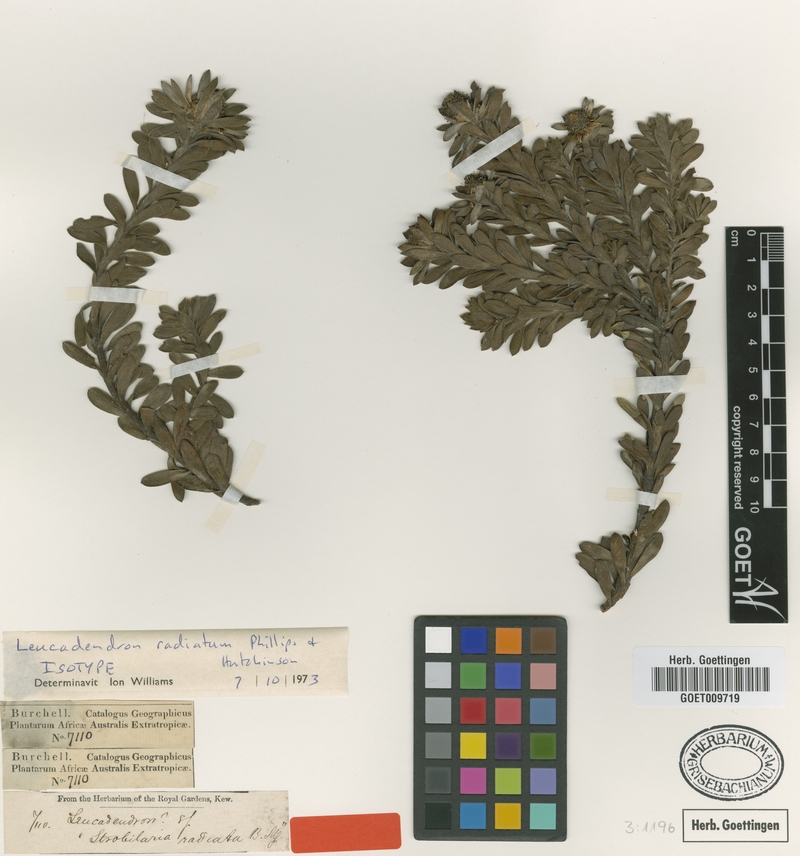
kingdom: Plantae
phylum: Tracheophyta
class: Magnoliopsida
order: Proteales
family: Proteaceae
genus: Leucadendron
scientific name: Leucadendron radiatum
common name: Langeberg conebush
